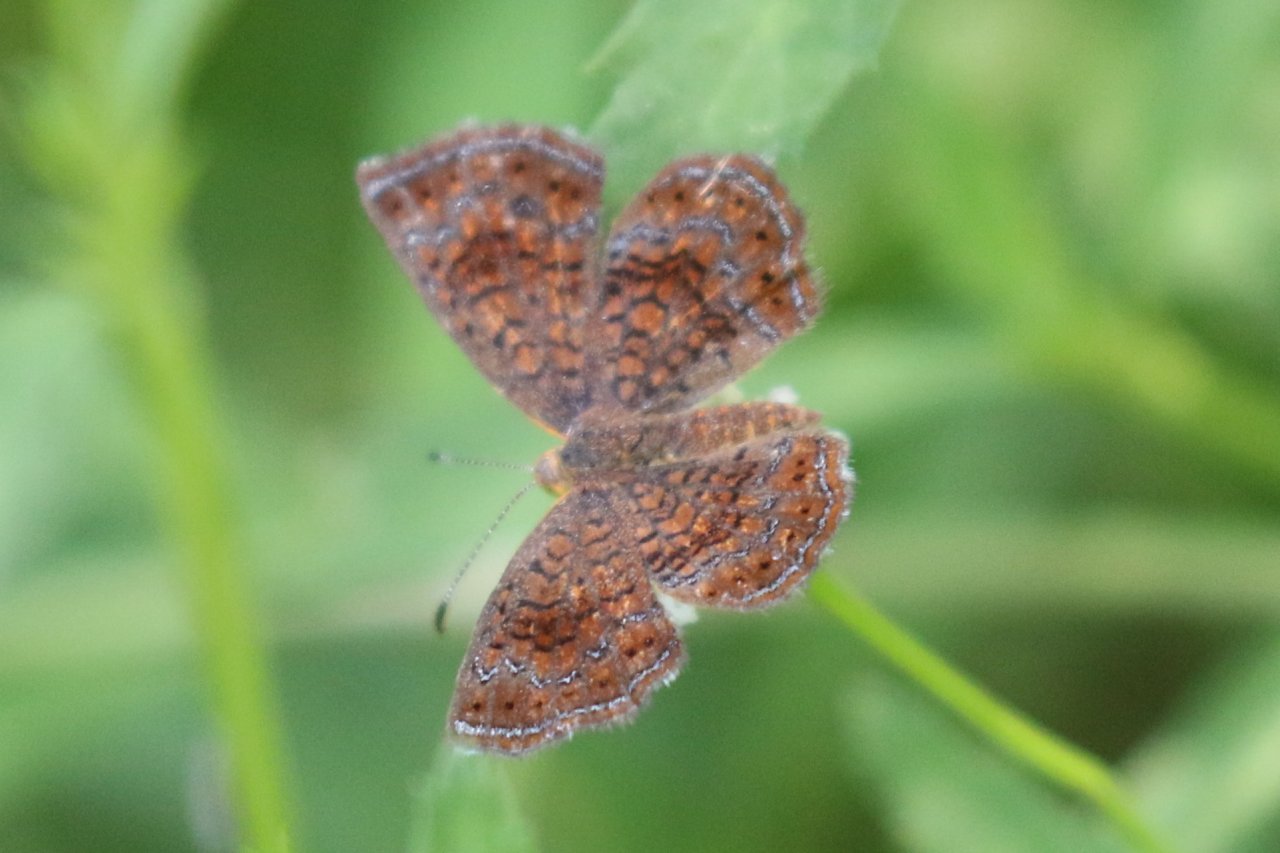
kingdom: Animalia
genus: Calephelis
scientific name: Calephelis perditalis
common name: Rounded Metalmark
